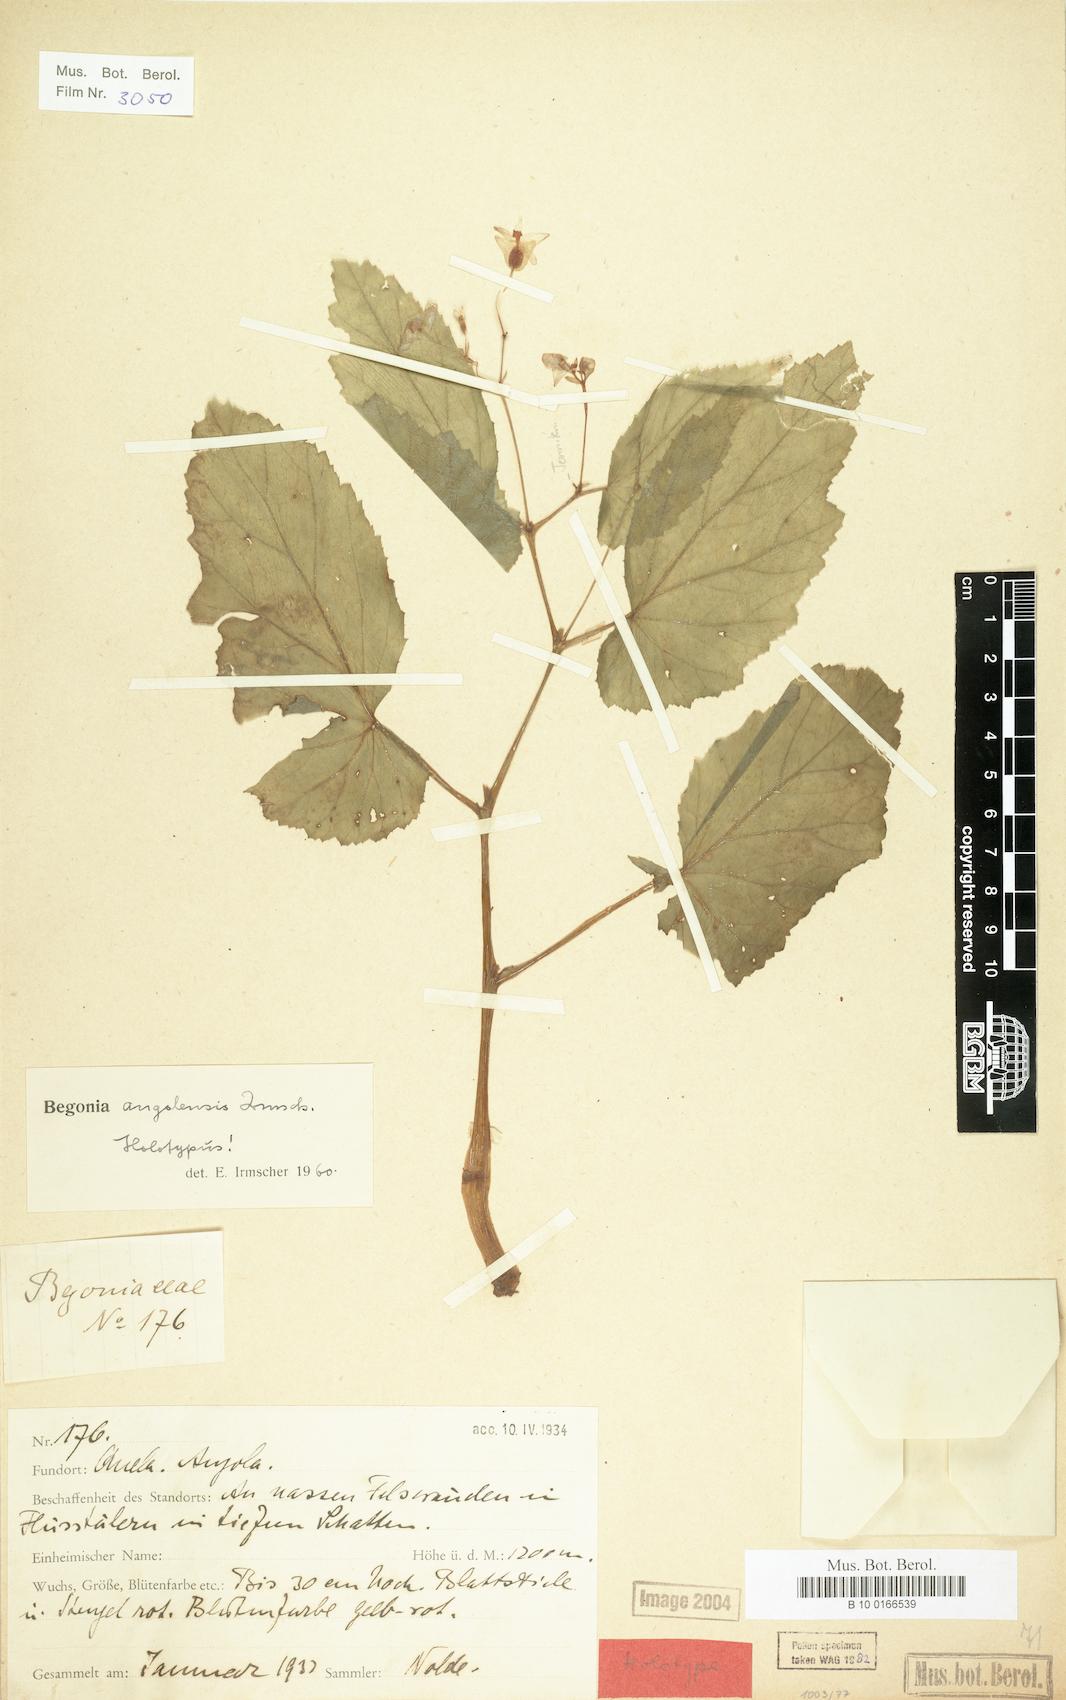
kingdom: Plantae
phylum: Tracheophyta
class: Magnoliopsida
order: Cucurbitales
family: Begoniaceae
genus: Begonia
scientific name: Begonia angolensis
